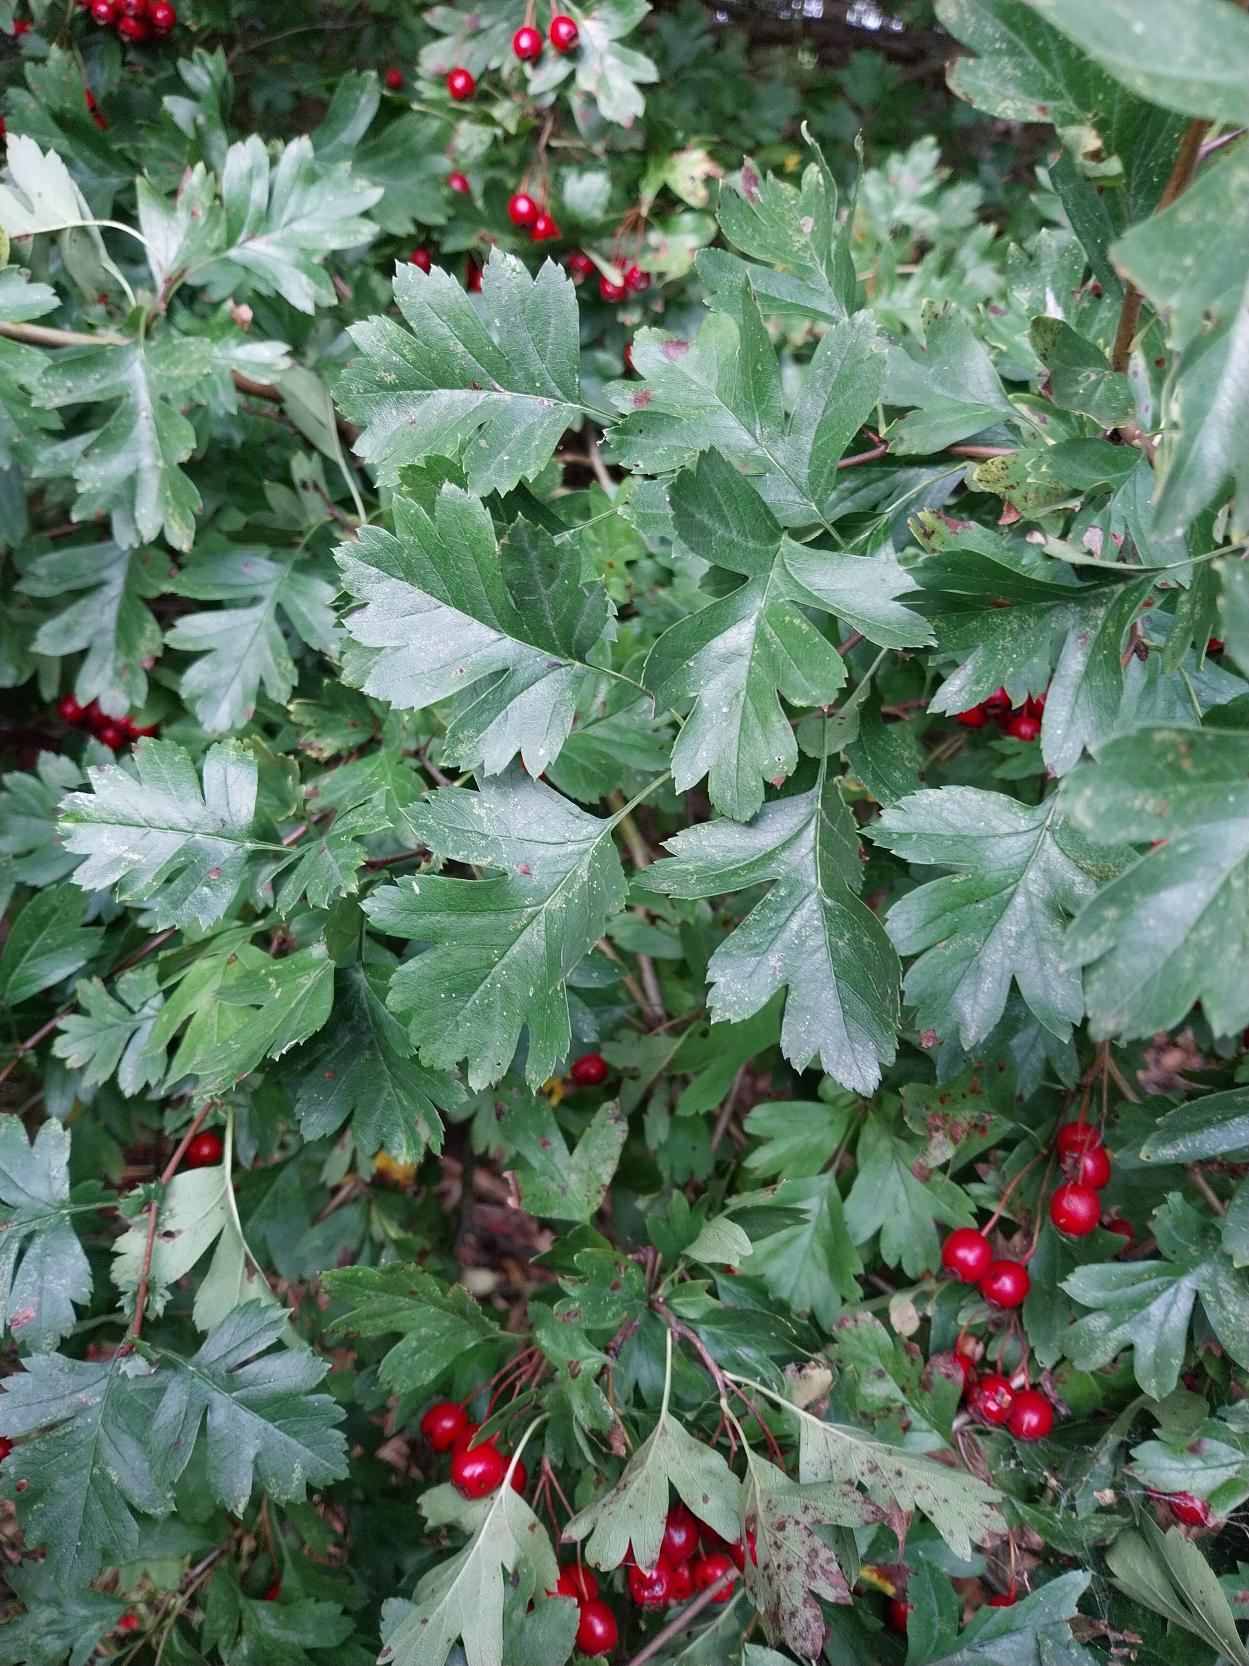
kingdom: Plantae
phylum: Tracheophyta
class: Magnoliopsida
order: Rosales
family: Rosaceae
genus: Crataegus
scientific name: Crataegus subsphaerica
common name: Engriflet hvidtjørn × koral-hvidtjørn
